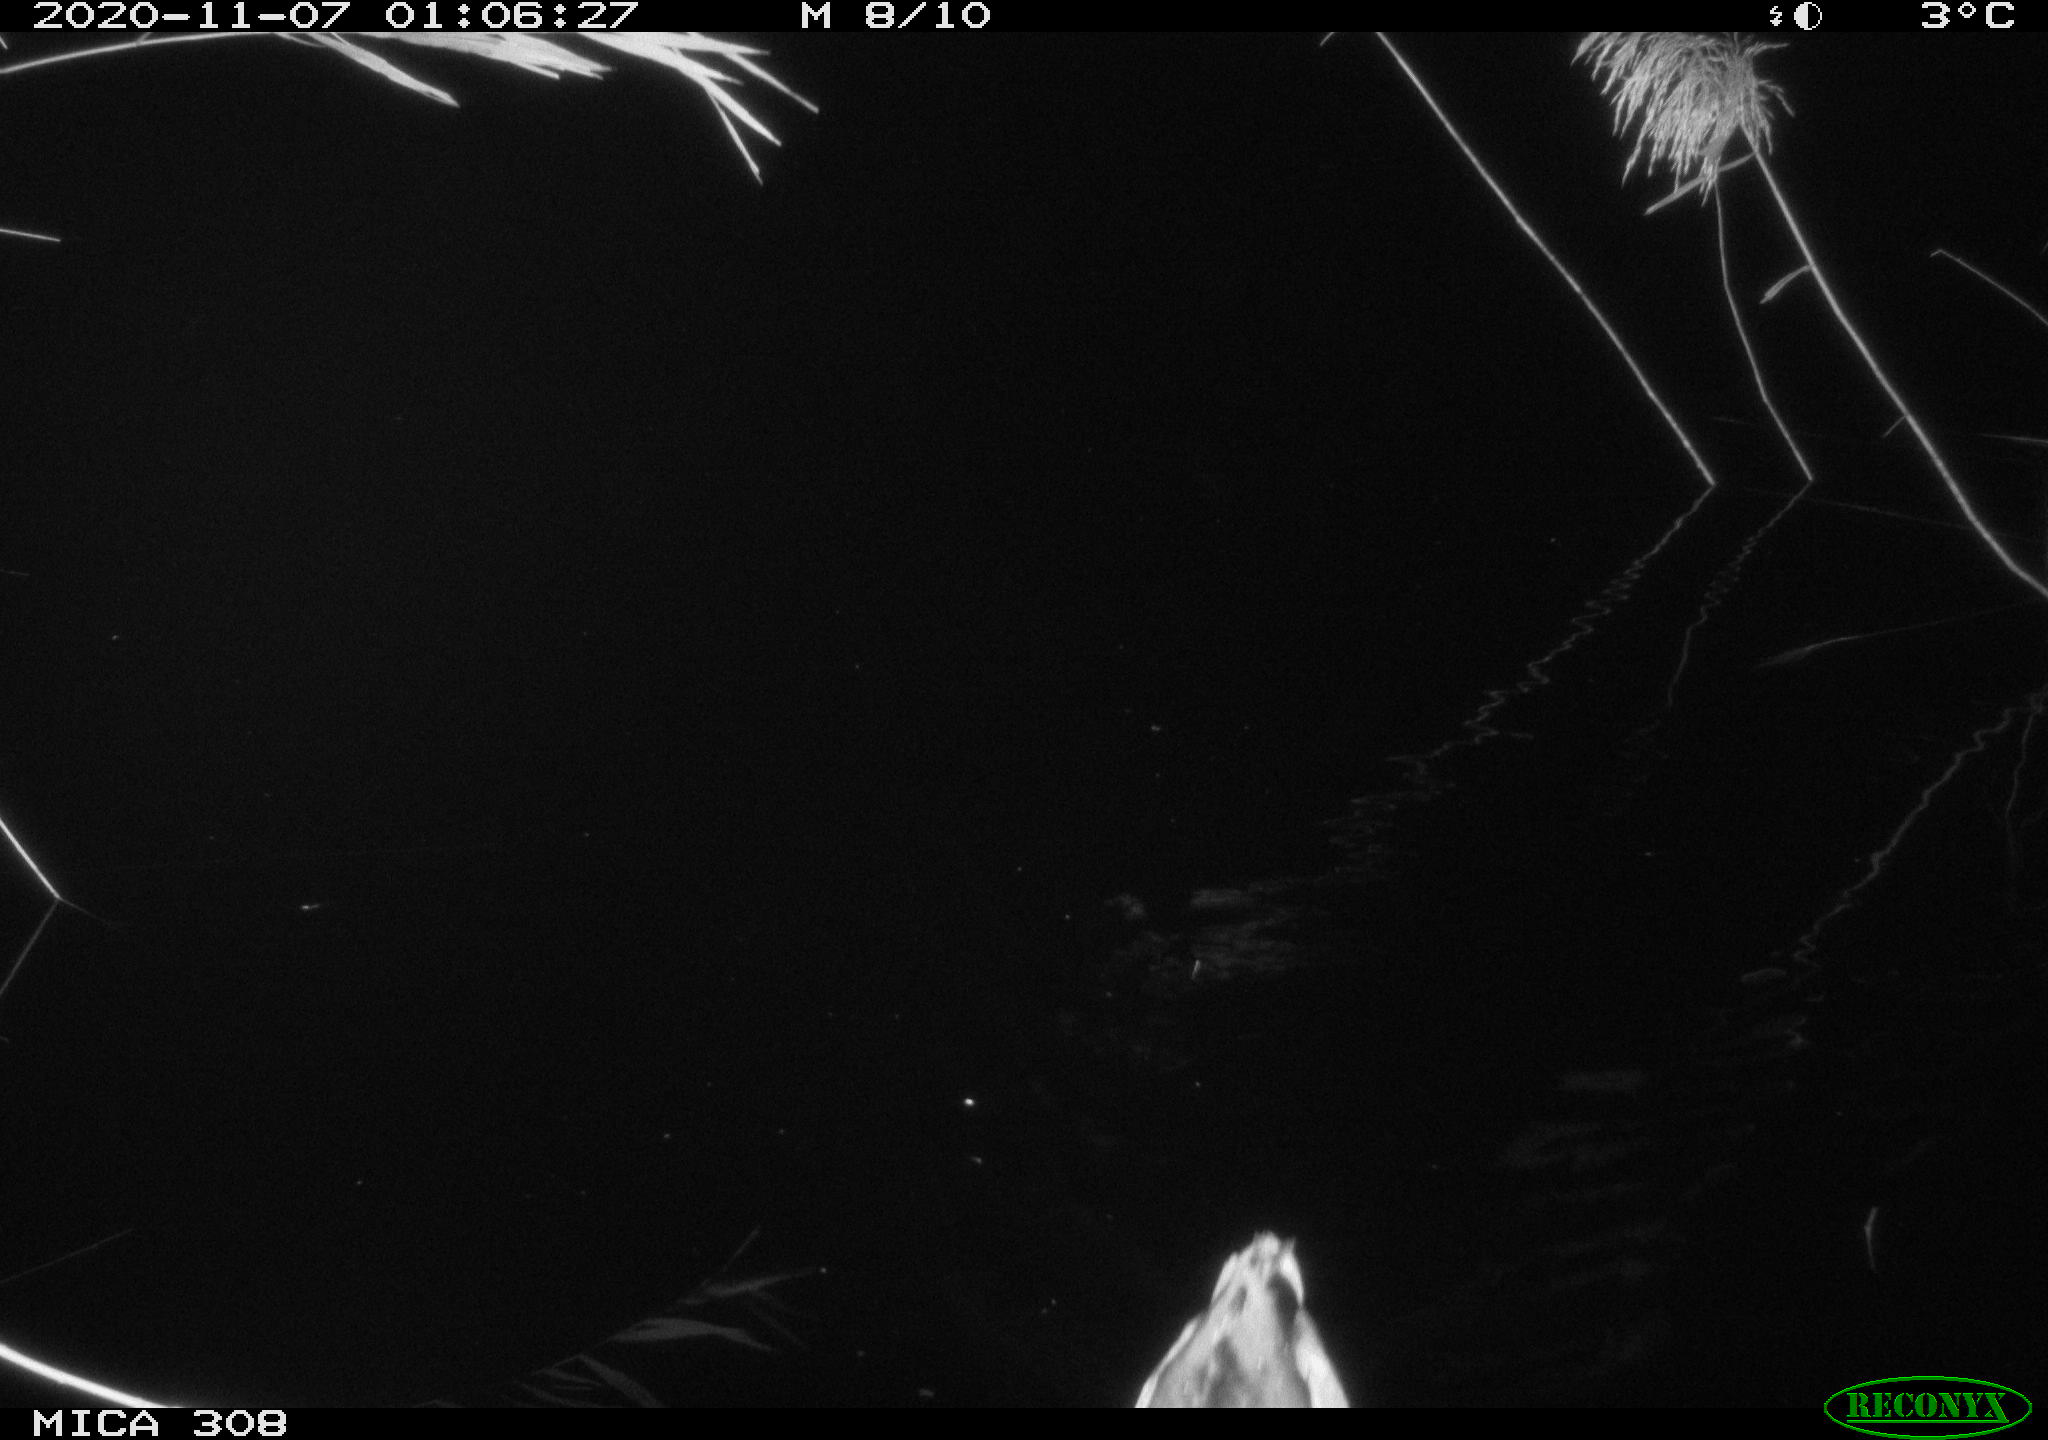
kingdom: Animalia
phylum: Chordata
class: Aves
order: Anseriformes
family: Anatidae
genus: Anas
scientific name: Anas platyrhynchos
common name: Mallard
